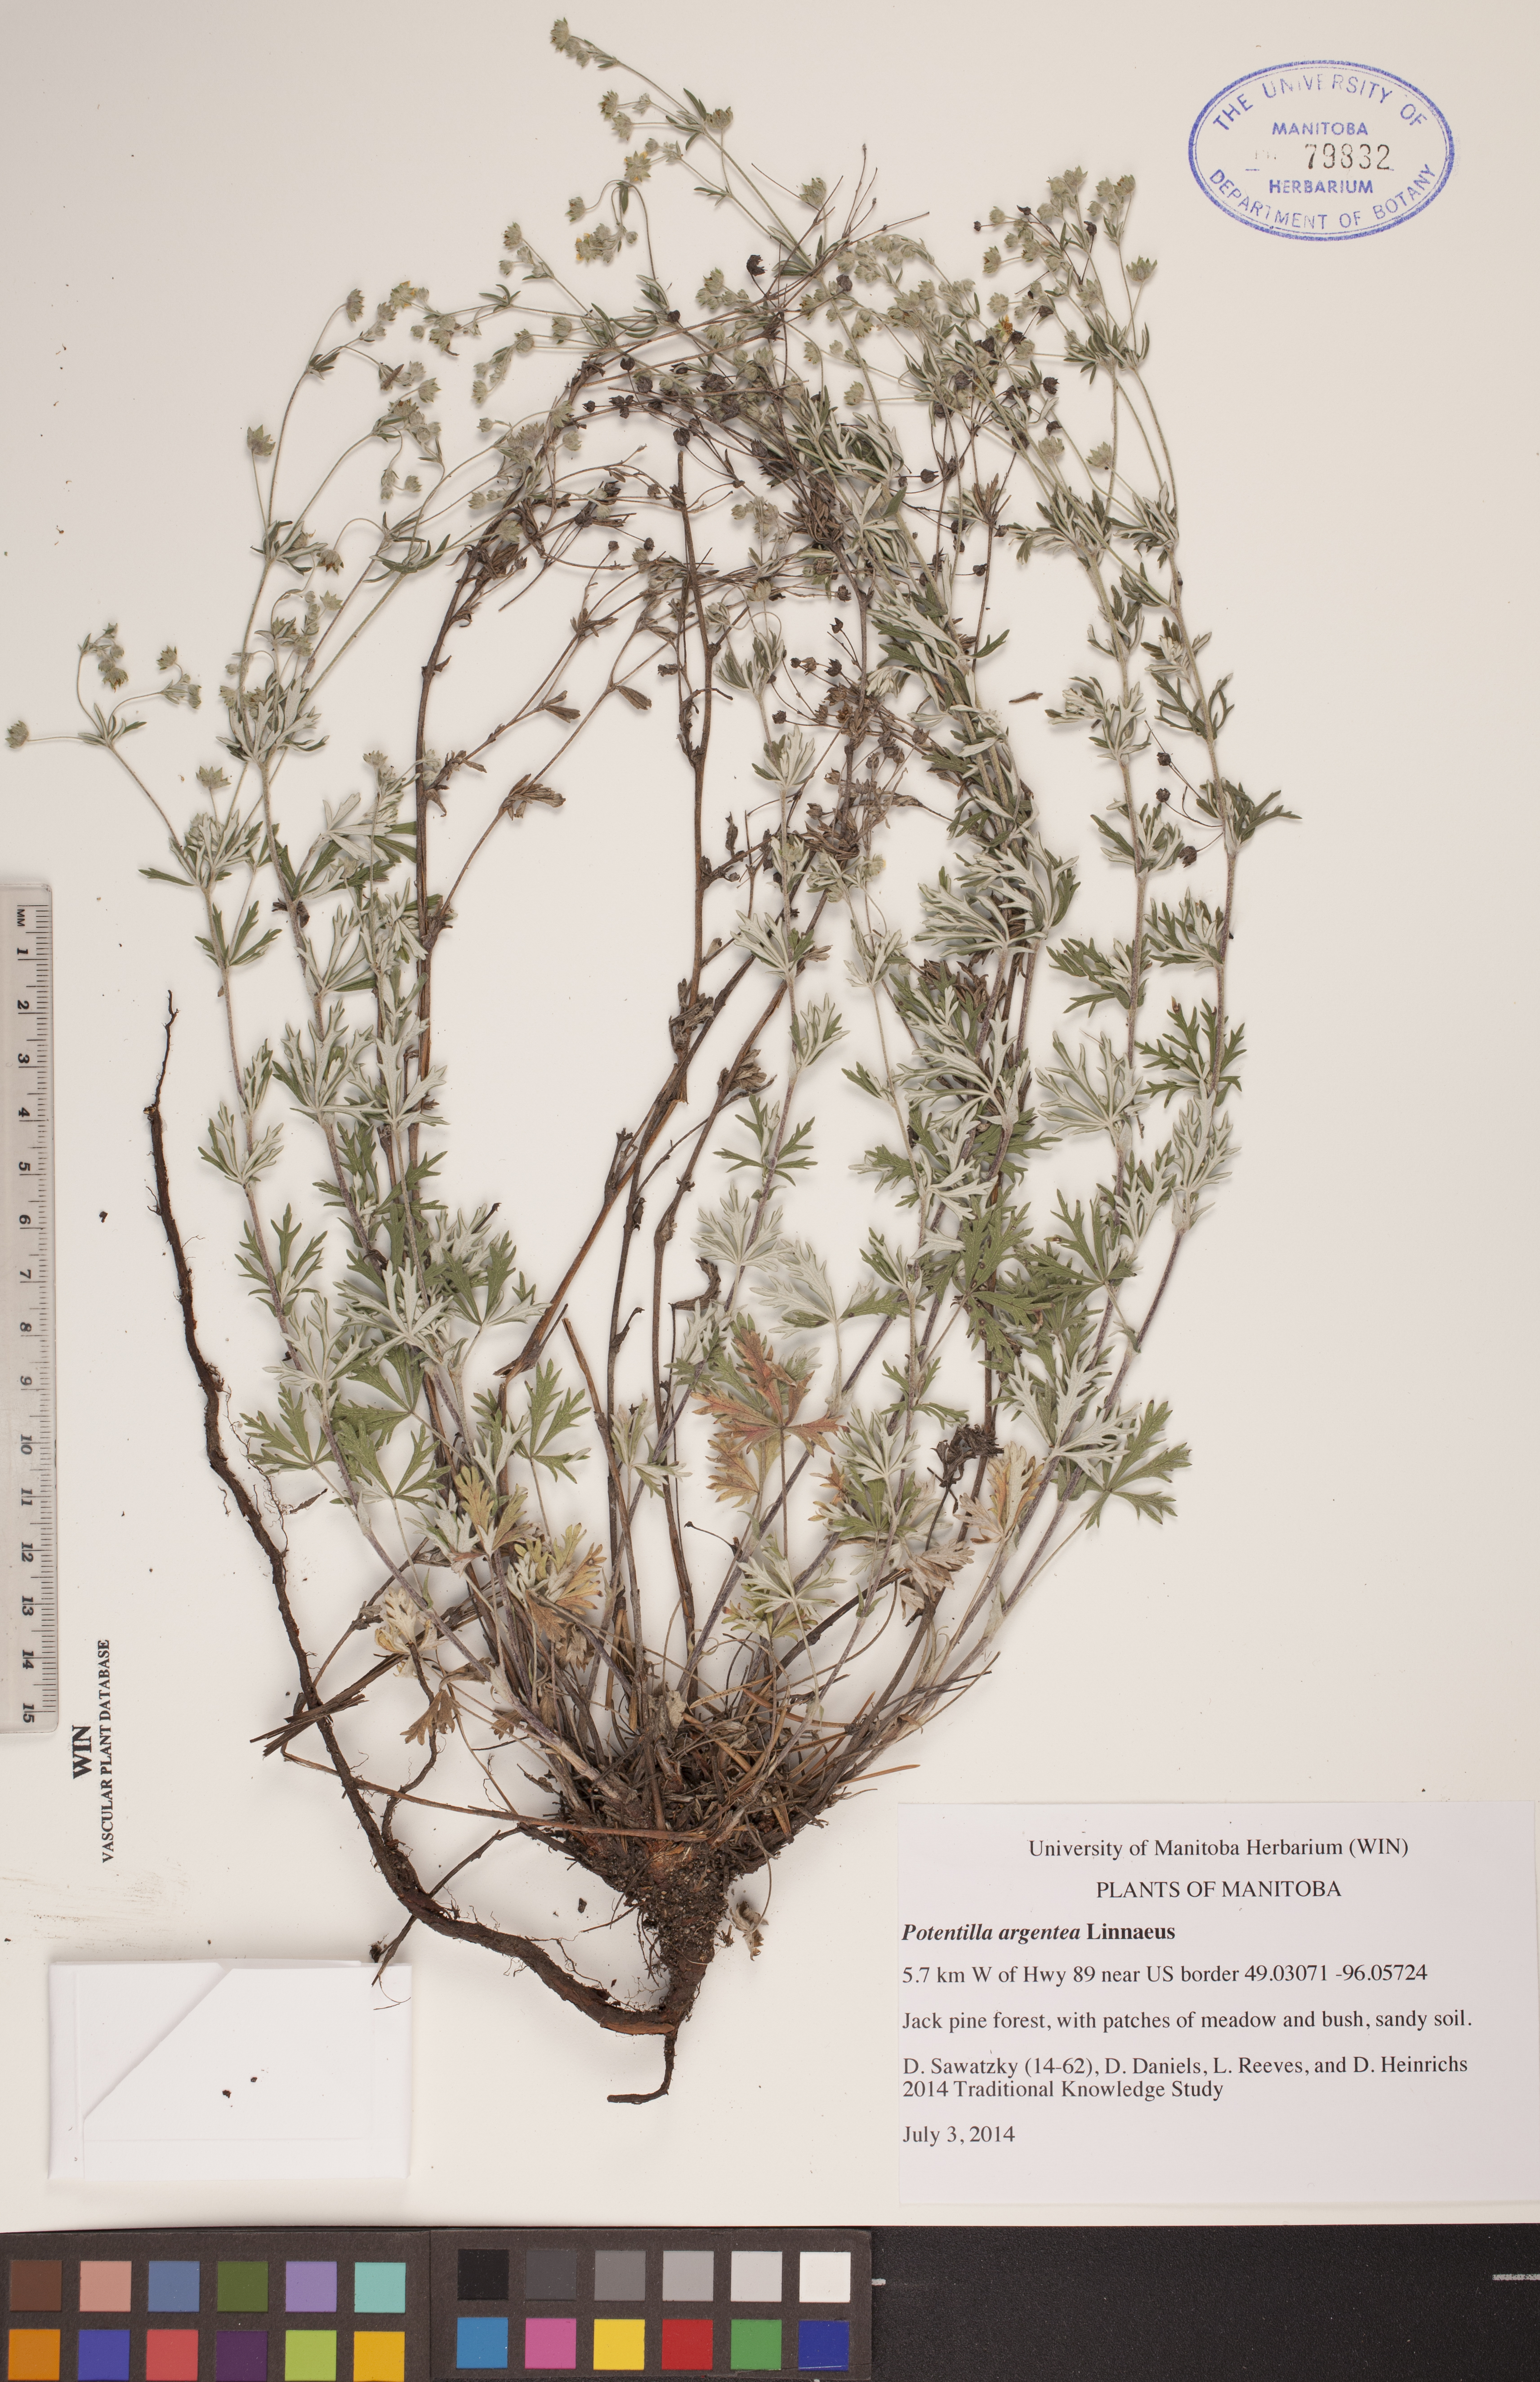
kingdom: Plantae
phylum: Tracheophyta
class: Magnoliopsida
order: Rosales
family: Rosaceae
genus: Potentilla
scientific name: Potentilla argentea
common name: Hoary cinquefoil
